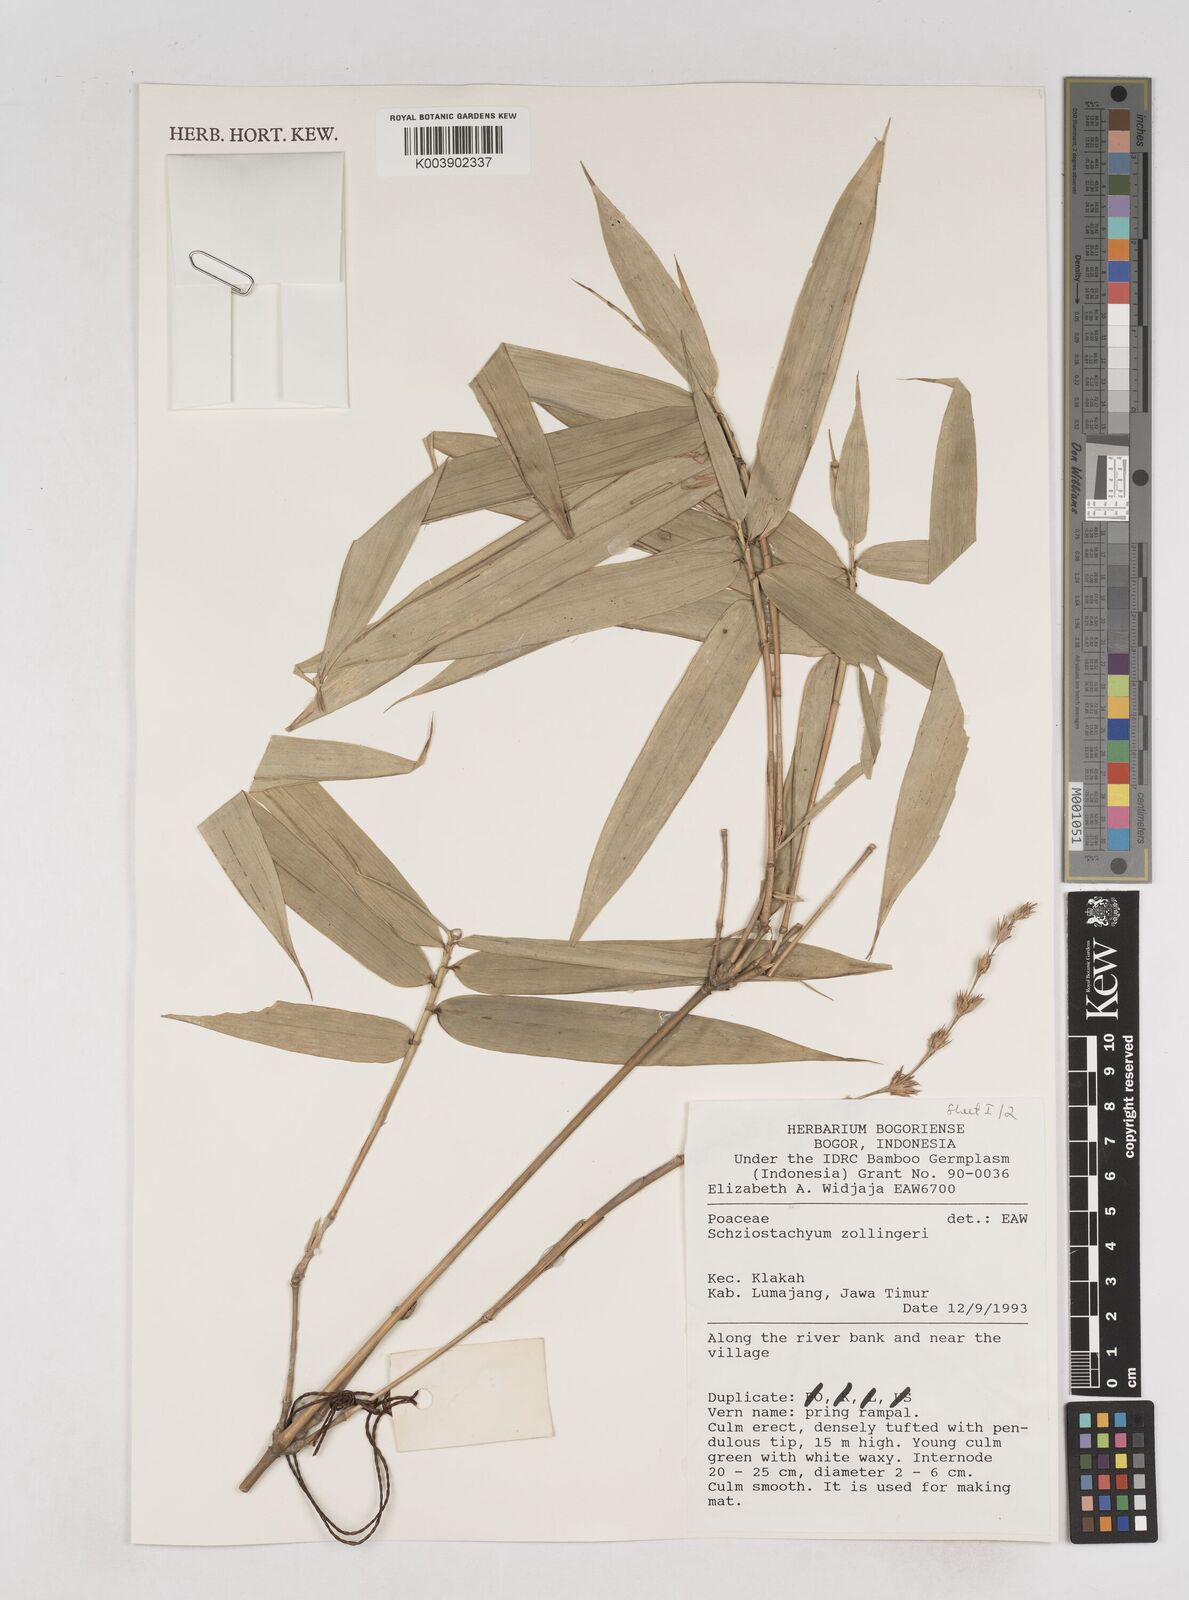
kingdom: Plantae
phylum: Tracheophyta
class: Liliopsida
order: Poales
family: Poaceae
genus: Schizostachyum
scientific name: Schizostachyum zollingeri
